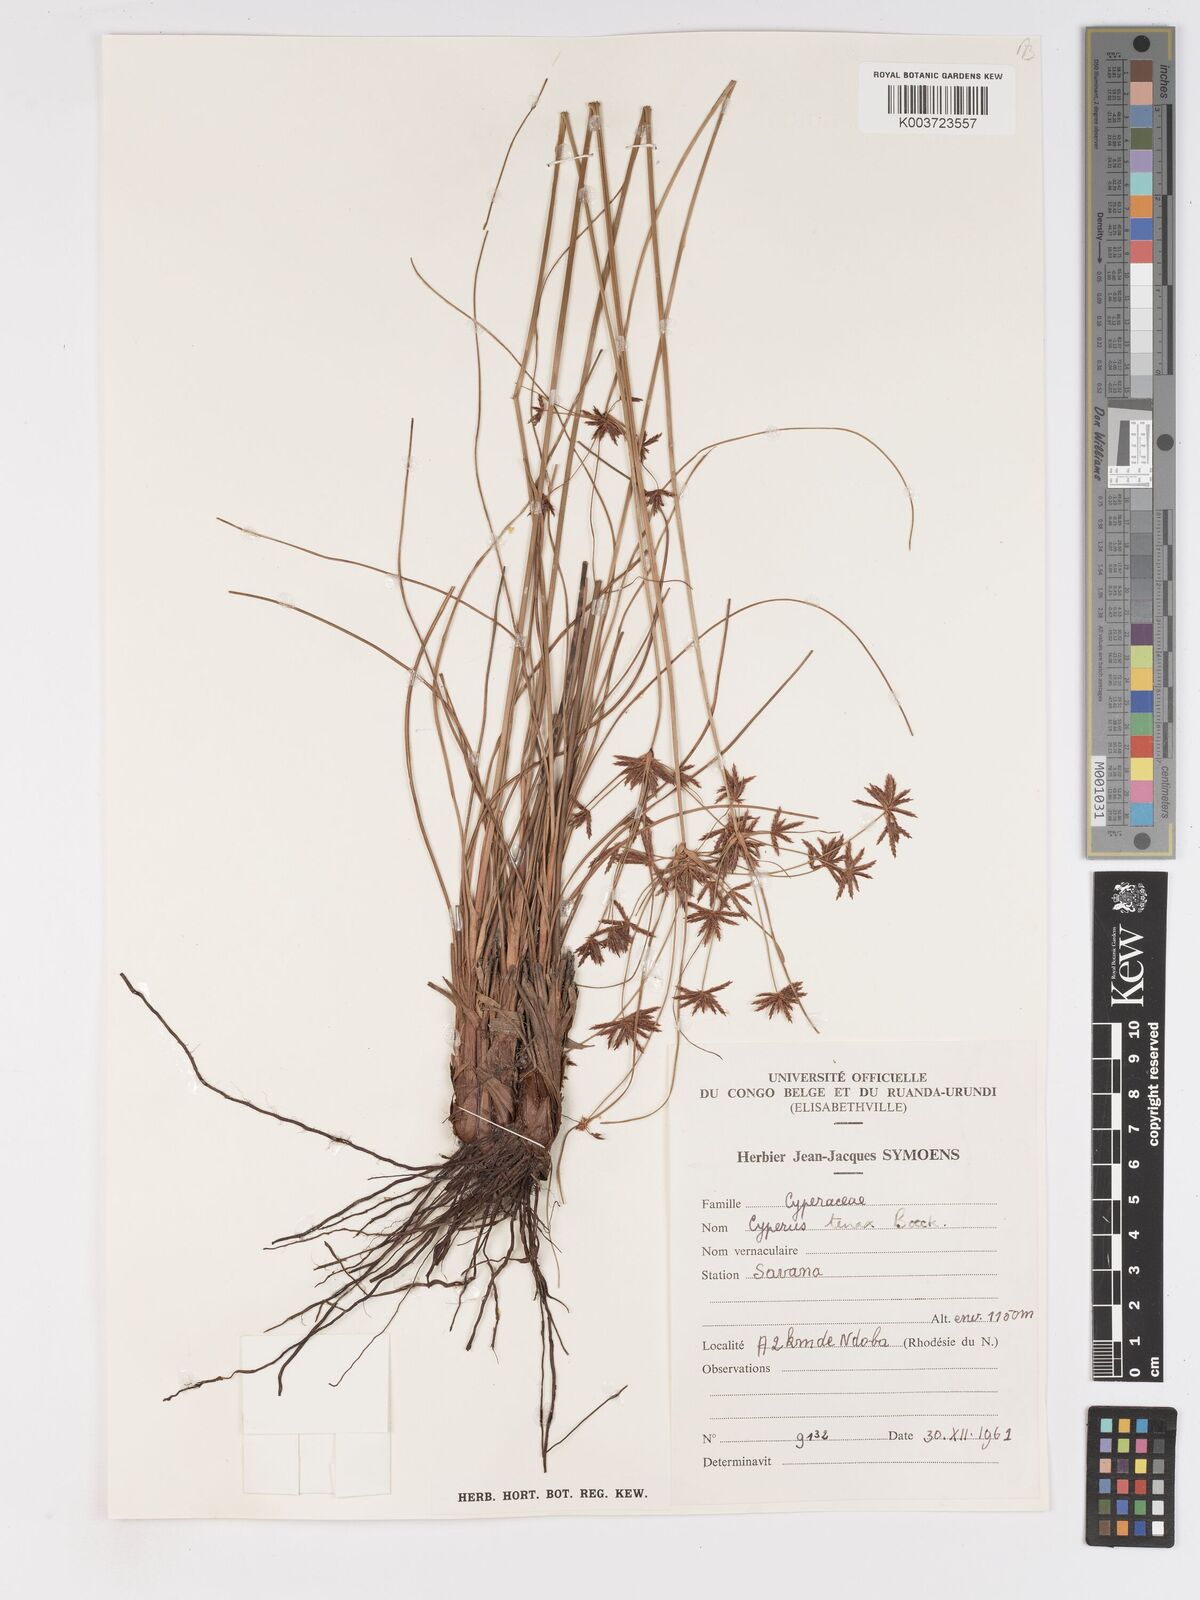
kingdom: Plantae
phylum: Tracheophyta
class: Liliopsida
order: Poales
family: Cyperaceae
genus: Cyperus
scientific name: Cyperus tenax
